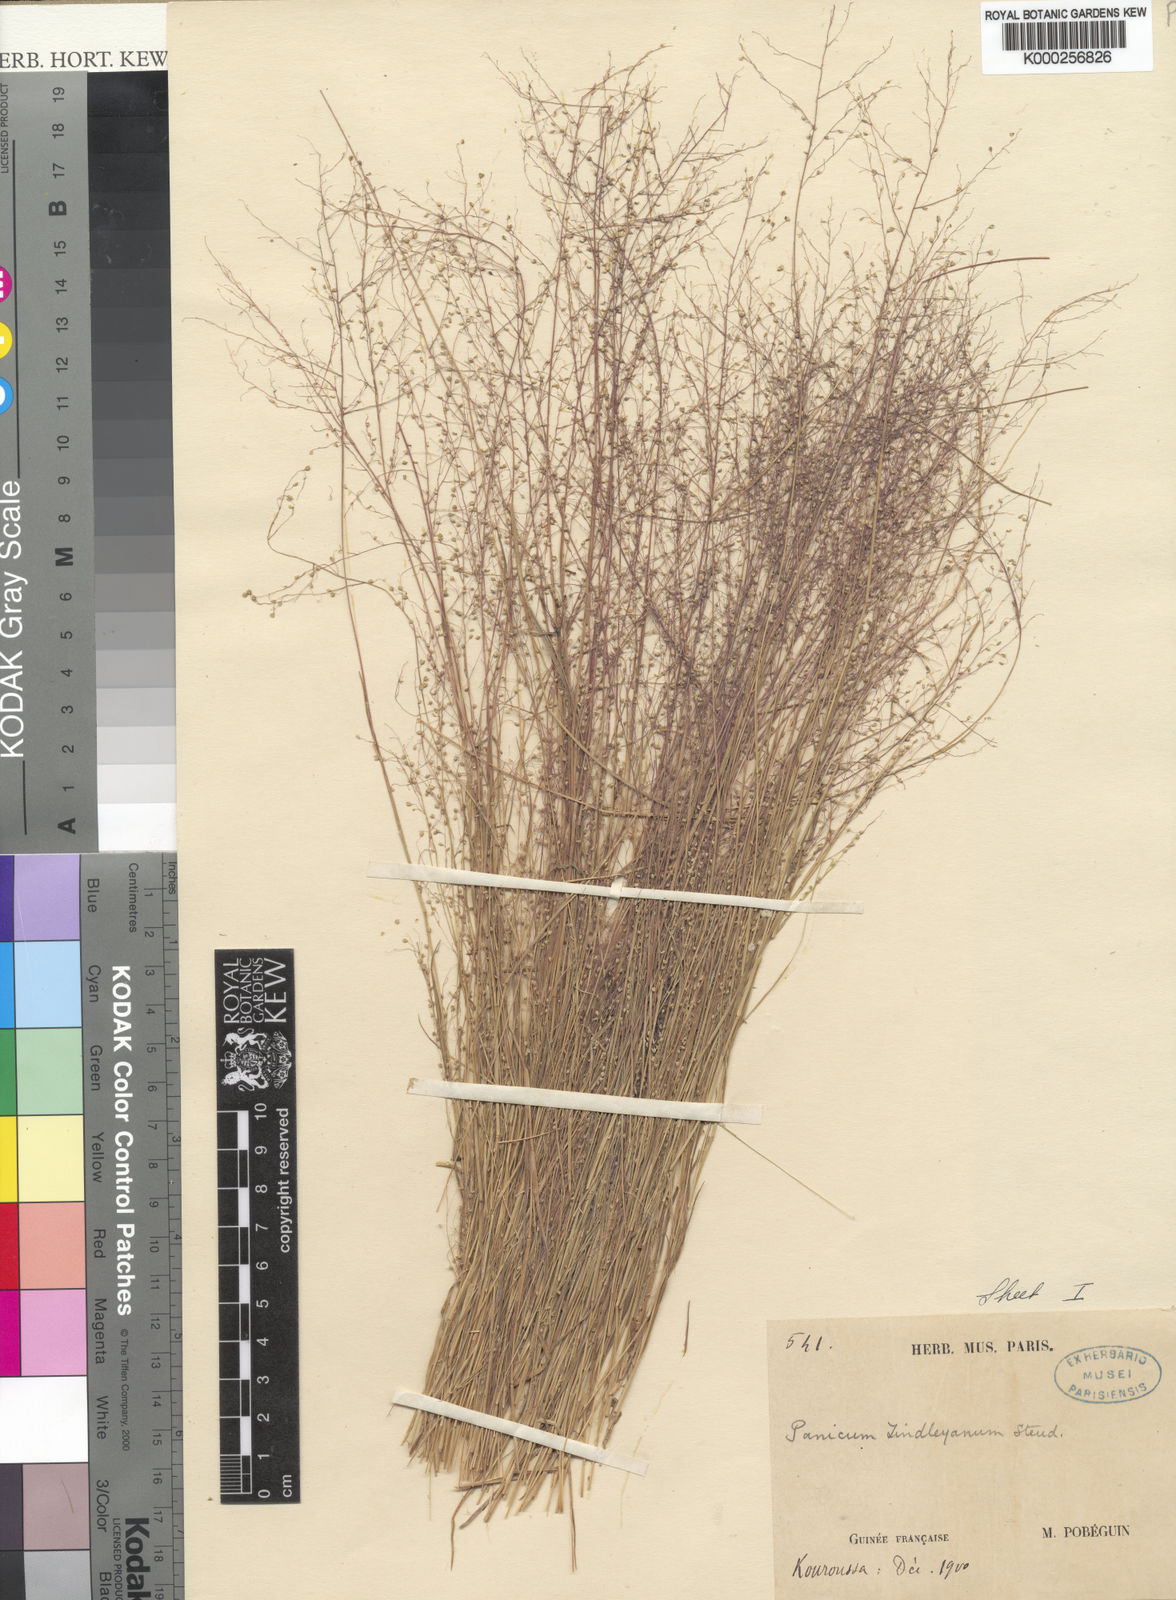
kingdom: Plantae
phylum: Tracheophyta
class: Liliopsida
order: Poales
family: Poaceae
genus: Panicum
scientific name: Panicum curviflorum
